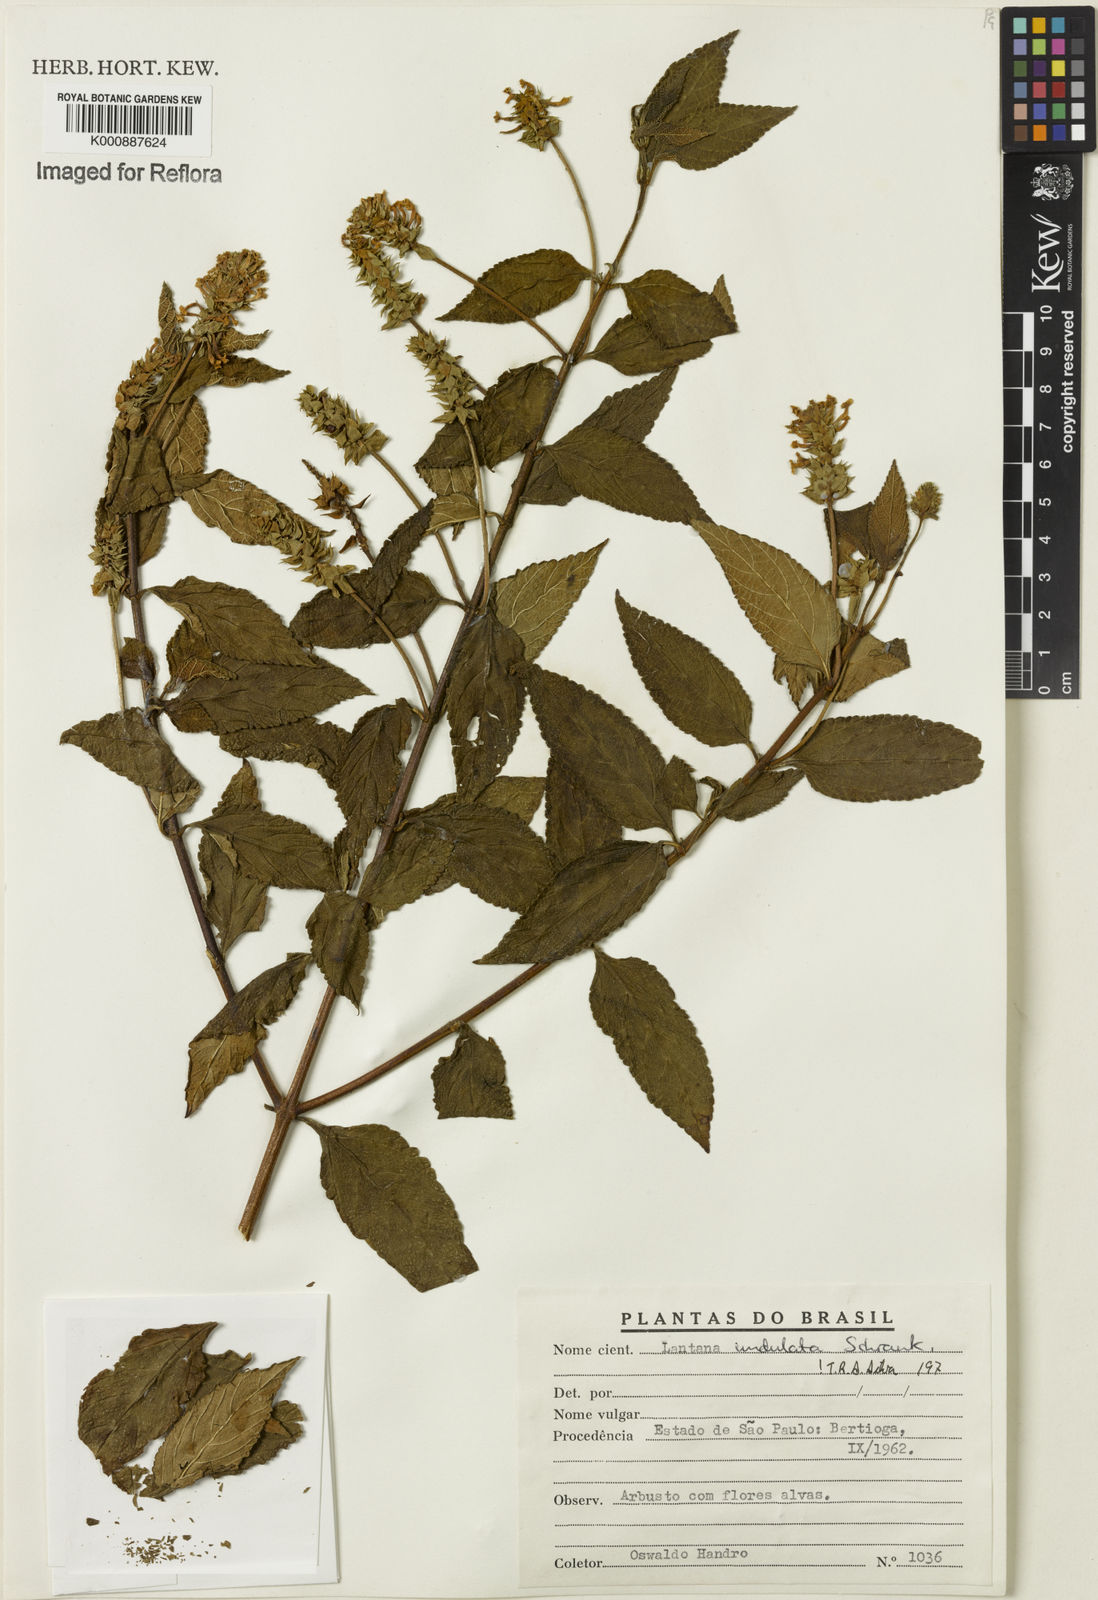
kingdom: Plantae
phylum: Tracheophyta
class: Magnoliopsida
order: Lamiales
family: Verbenaceae
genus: Lantana
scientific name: Lantana undulata
